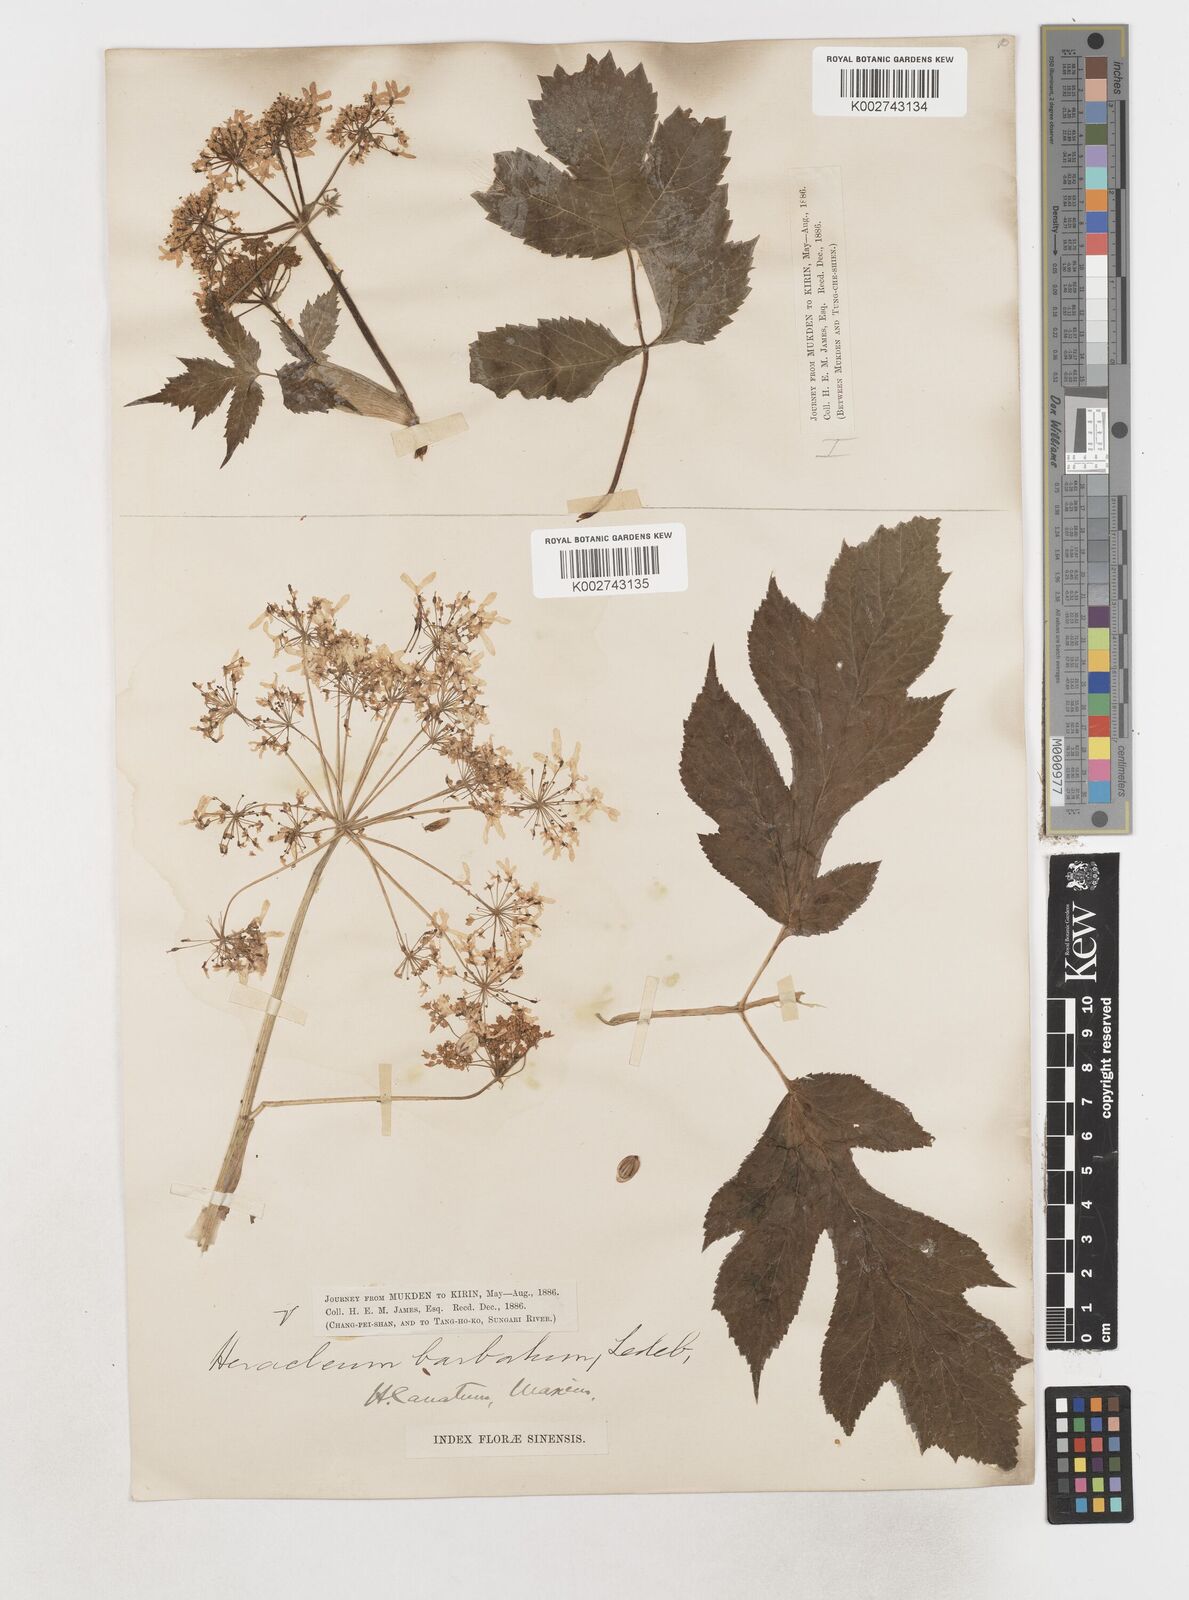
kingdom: Plantae
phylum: Tracheophyta
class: Magnoliopsida
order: Apiales
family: Apiaceae
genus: Heracleum
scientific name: Heracleum dissectum
